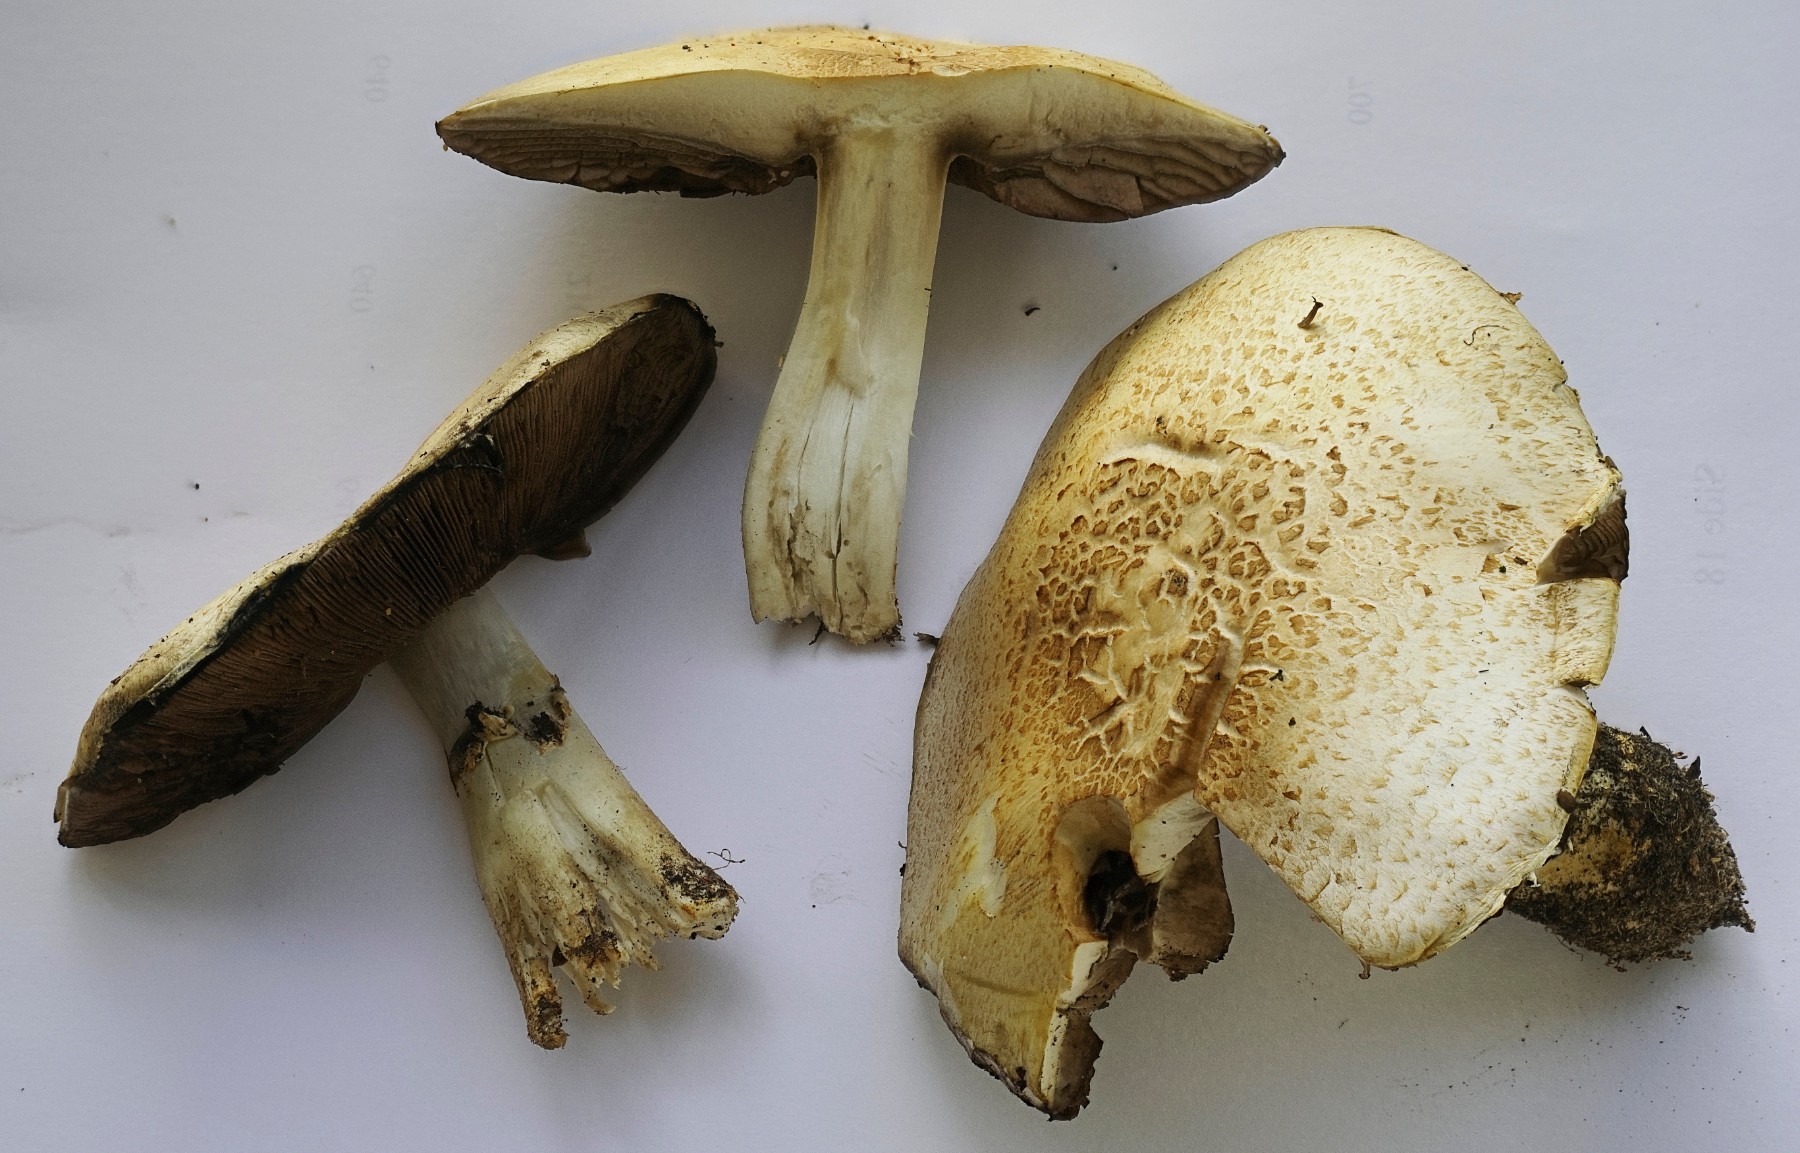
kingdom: Fungi
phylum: Basidiomycota
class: Agaricomycetes
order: Agaricales
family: Agaricaceae
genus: Agaricus
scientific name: Agaricus
